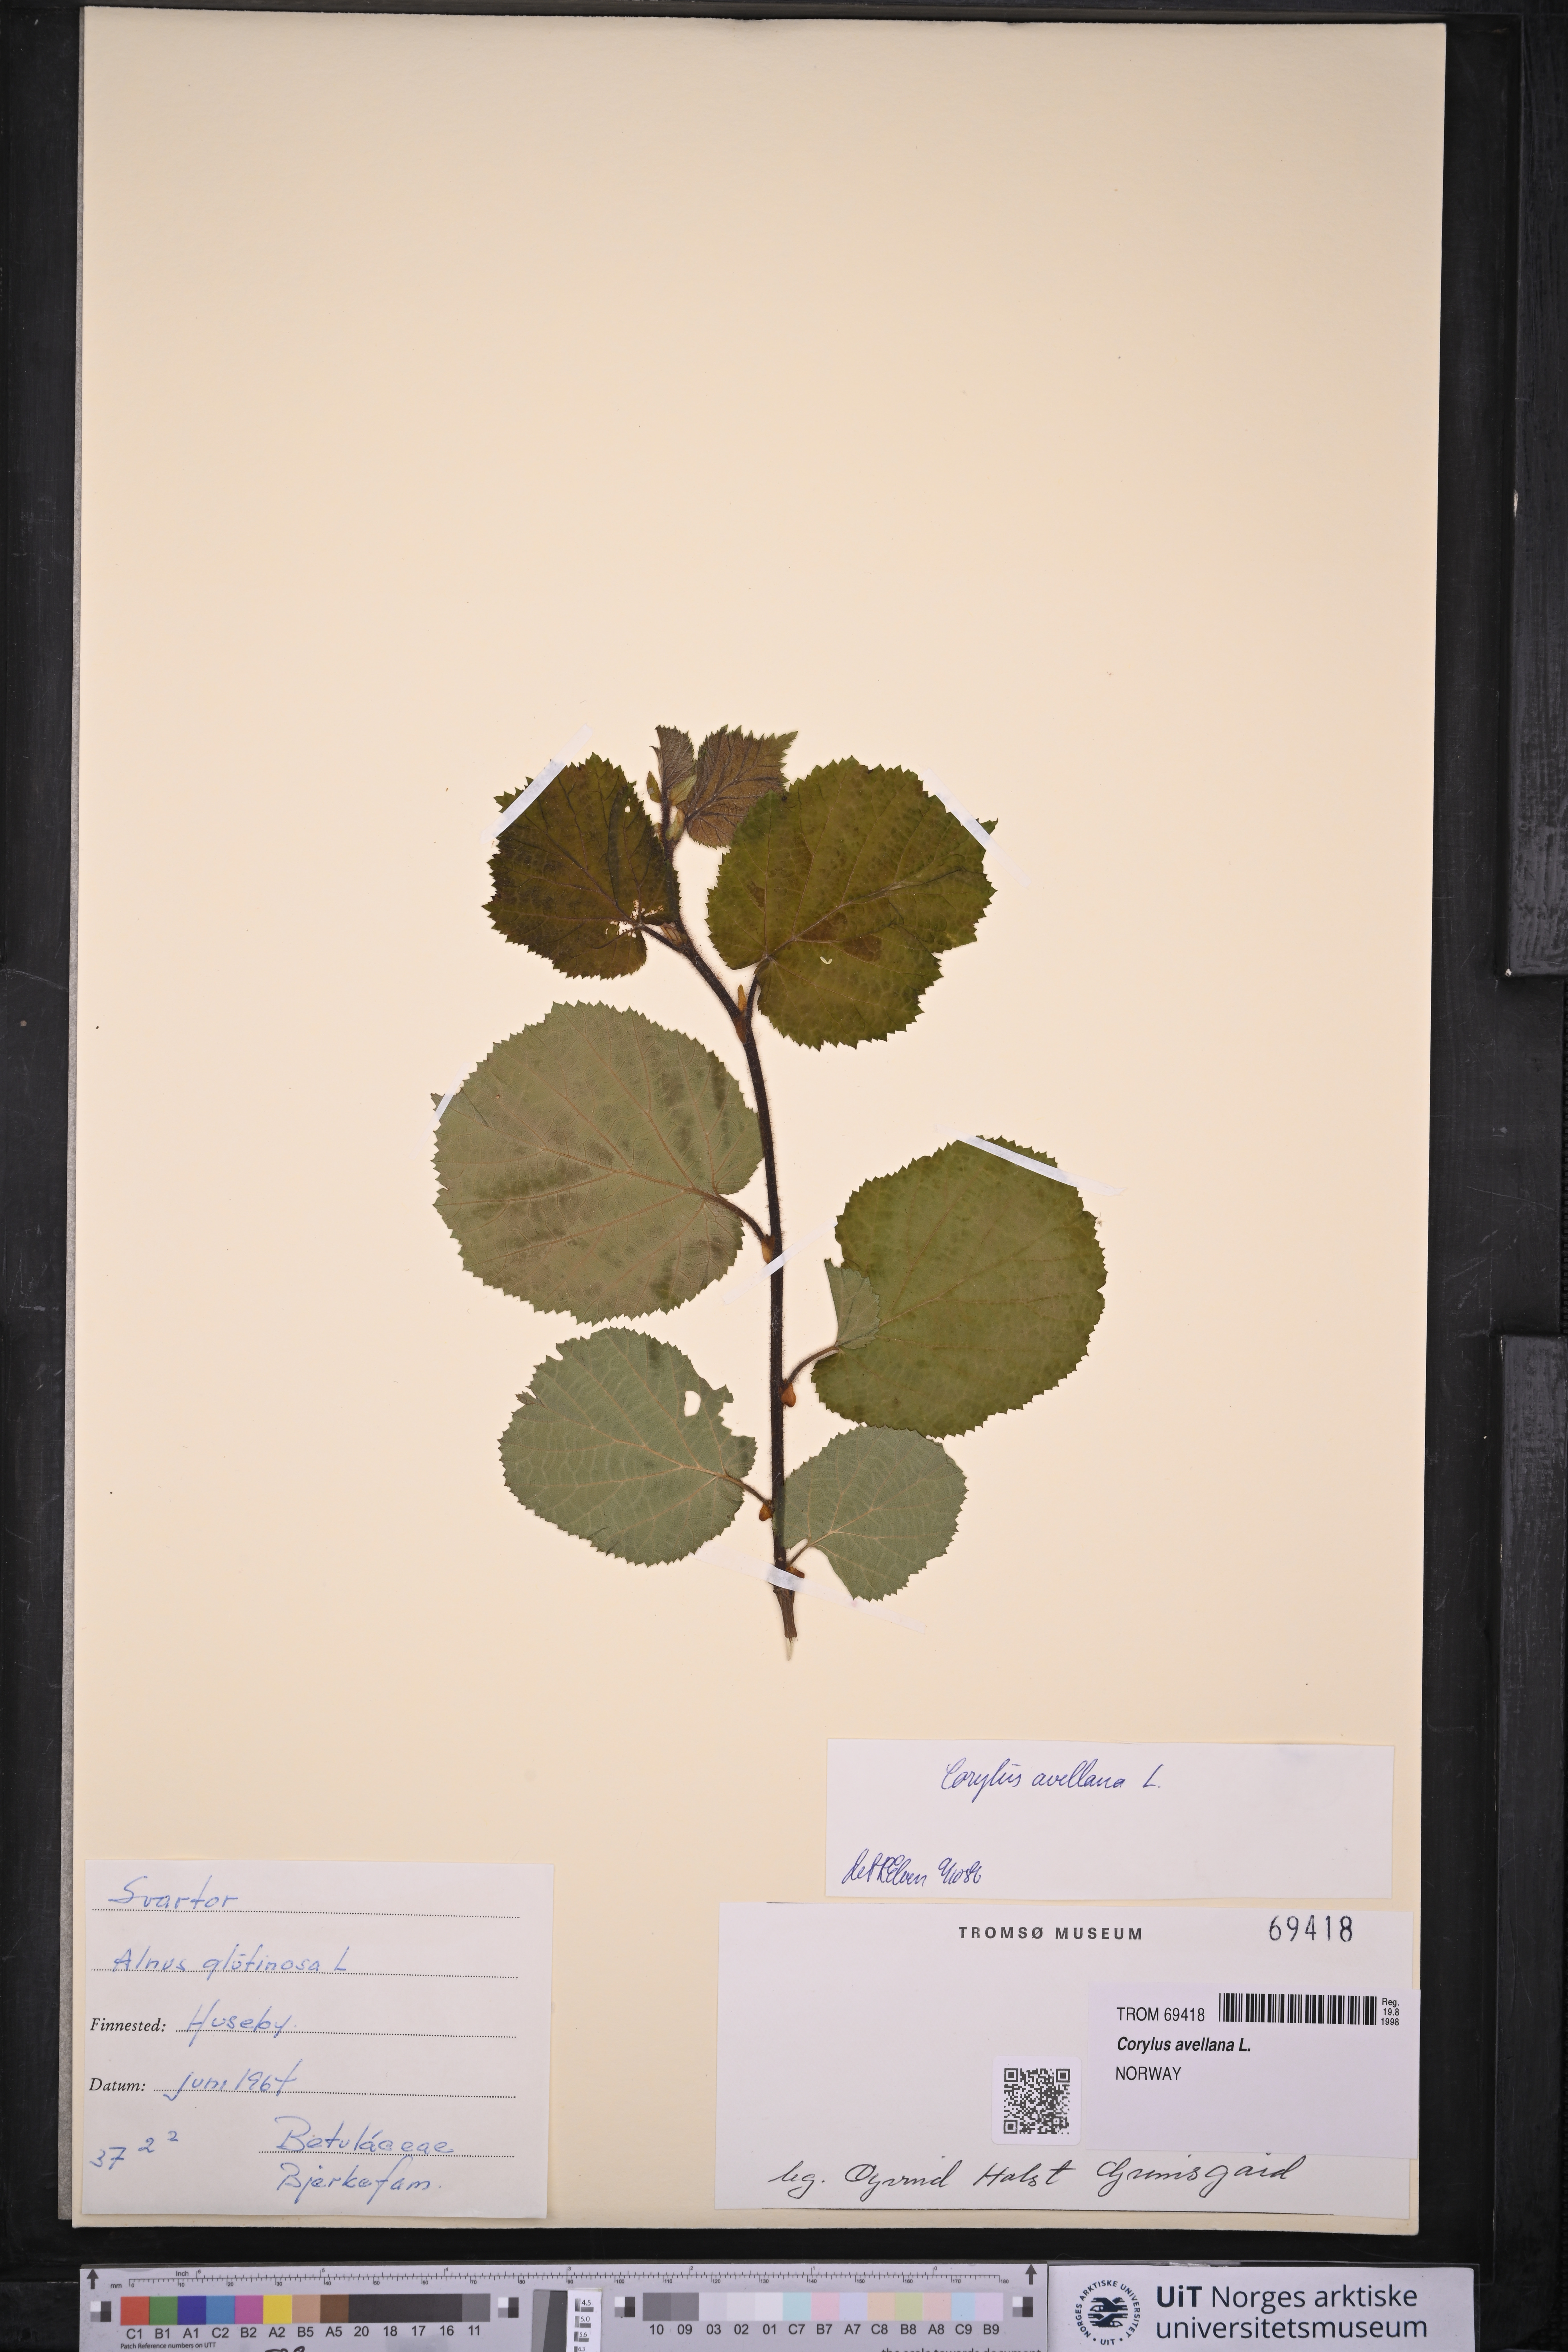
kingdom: Plantae
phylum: Tracheophyta
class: Magnoliopsida
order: Fagales
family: Betulaceae
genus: Corylus
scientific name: Corylus avellana
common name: European hazel
